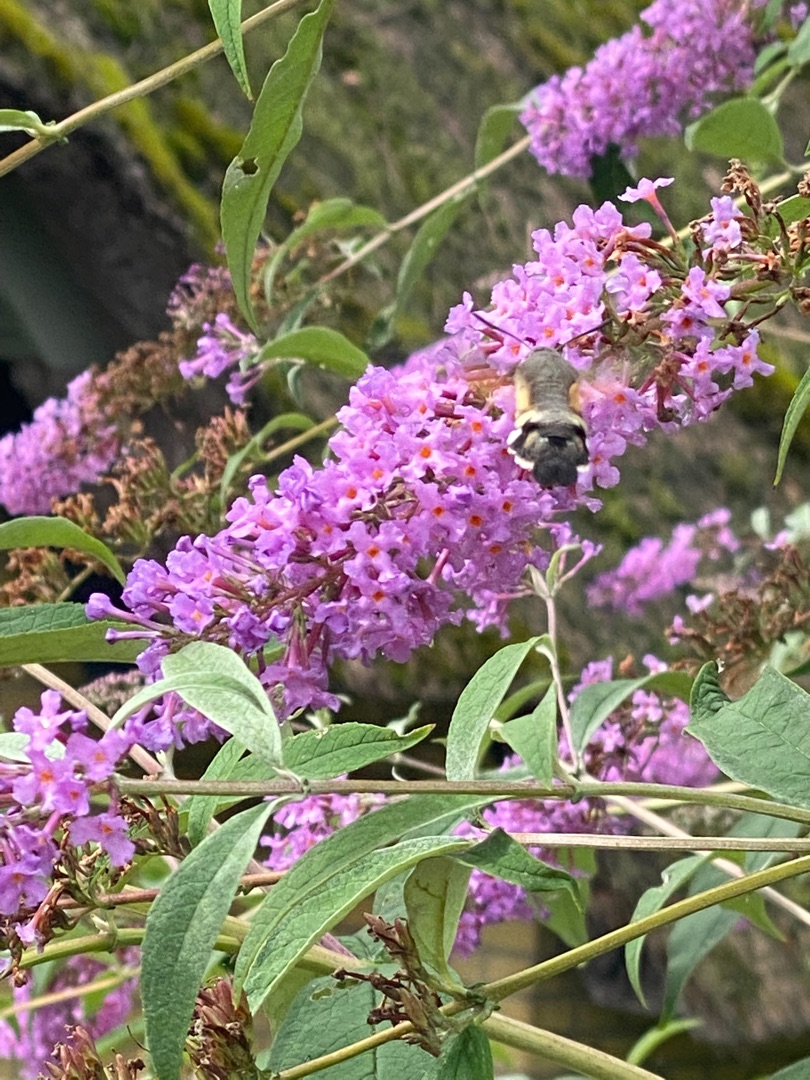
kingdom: Animalia
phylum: Arthropoda
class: Insecta
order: Lepidoptera
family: Sphingidae
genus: Macroglossum
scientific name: Macroglossum stellatarum
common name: Duehale
